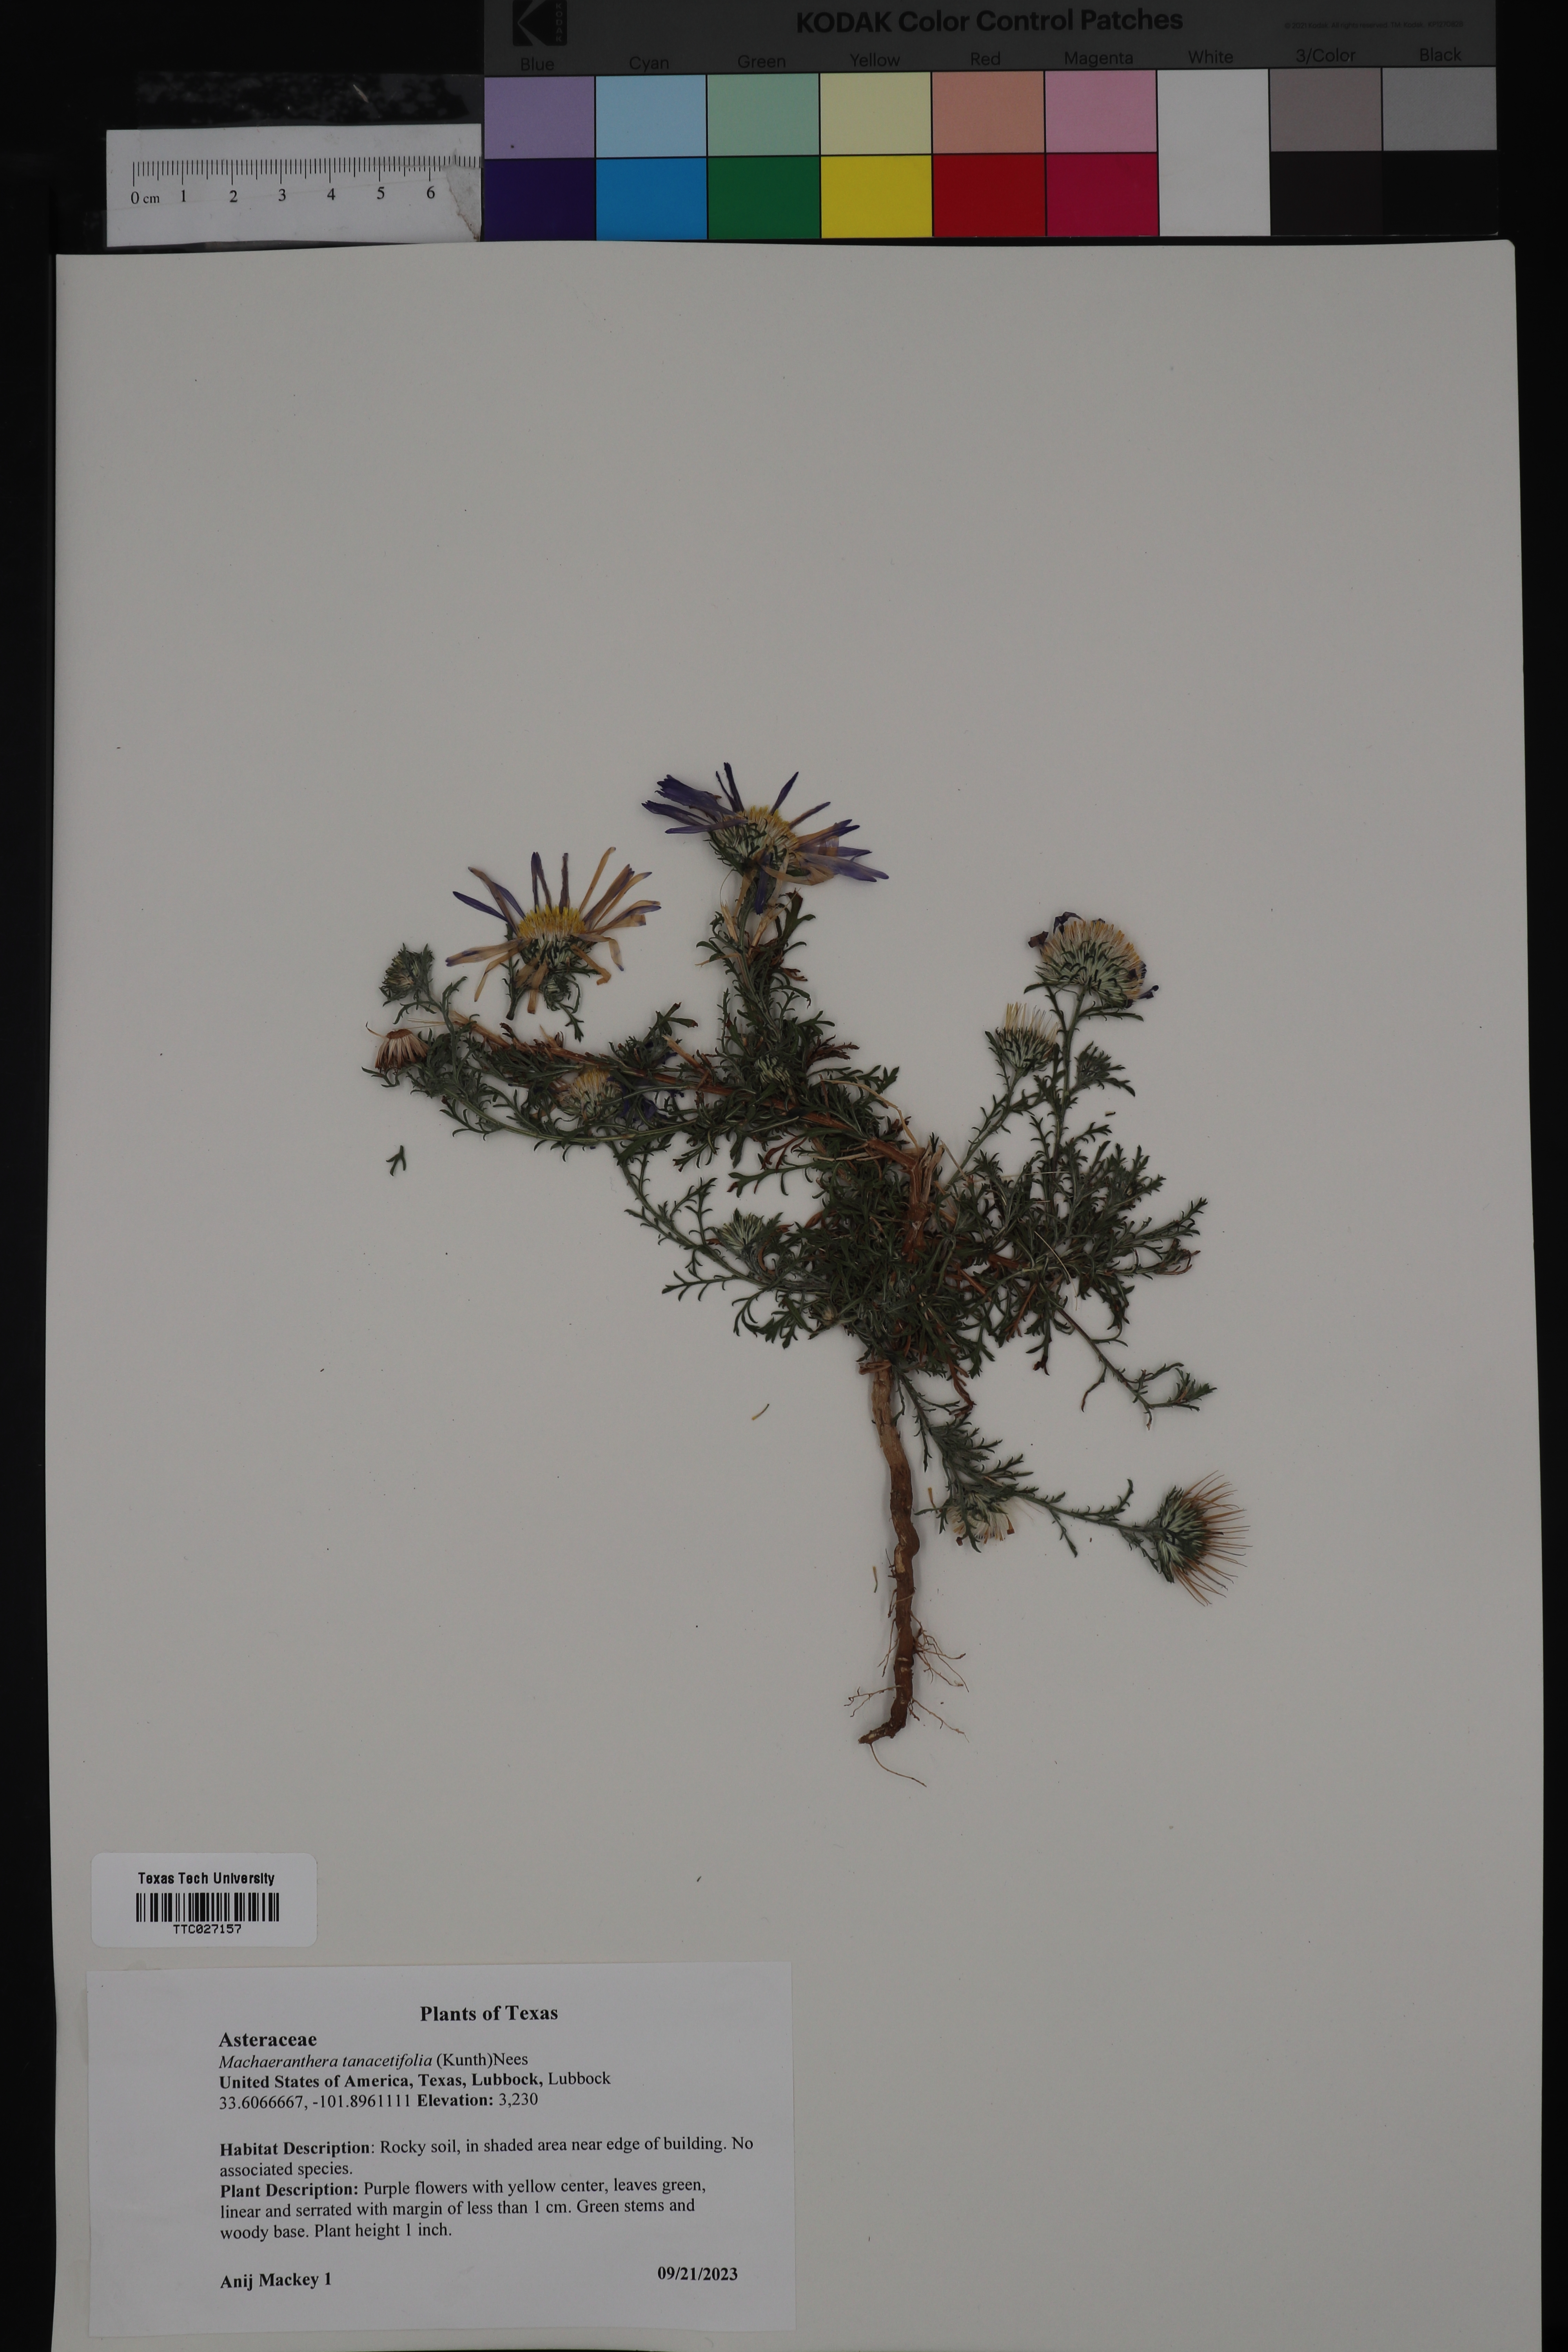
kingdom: Plantae
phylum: Tracheophyta
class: Magnoliopsida
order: Asterales
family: Asteraceae
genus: Machaeranthera
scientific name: Machaeranthera tanacetifolia
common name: Tansy-aster
